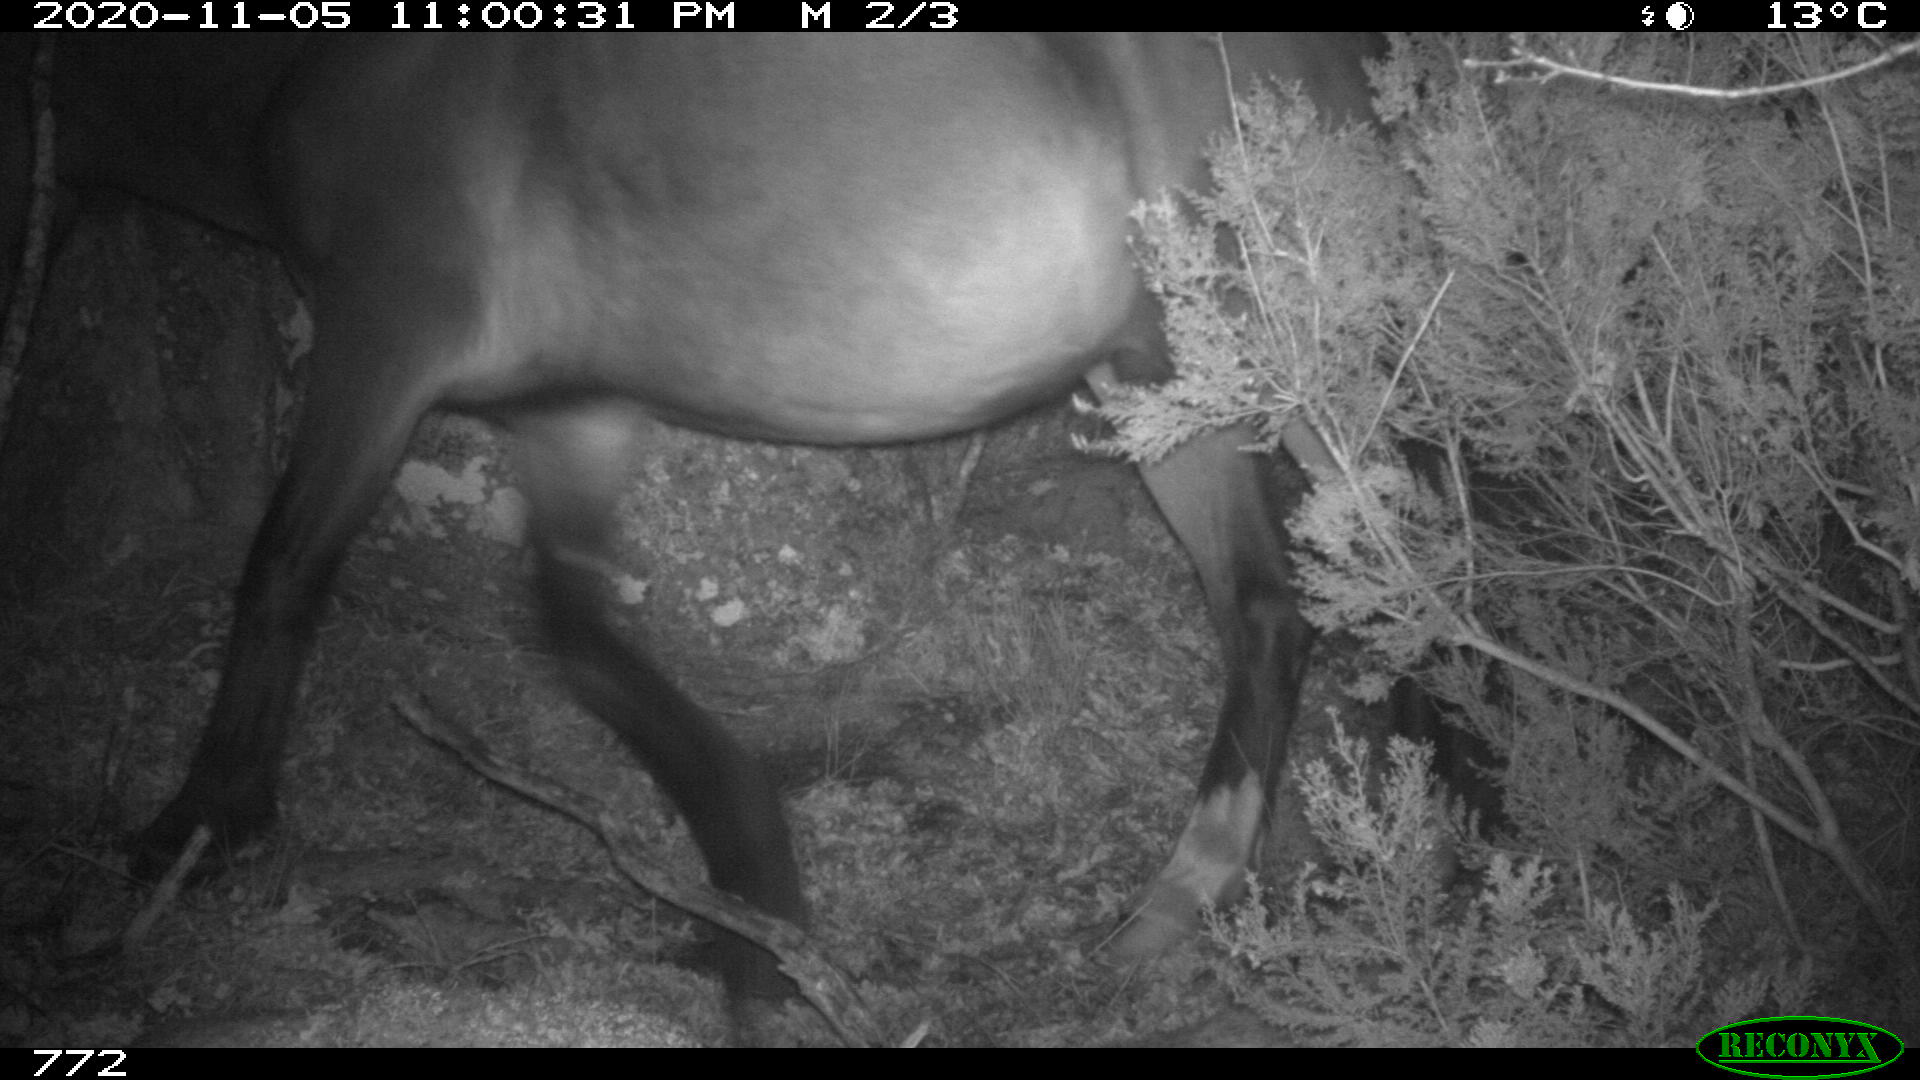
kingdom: Animalia
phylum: Chordata
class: Mammalia
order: Perissodactyla
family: Equidae
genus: Equus
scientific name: Equus caballus
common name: Horse
